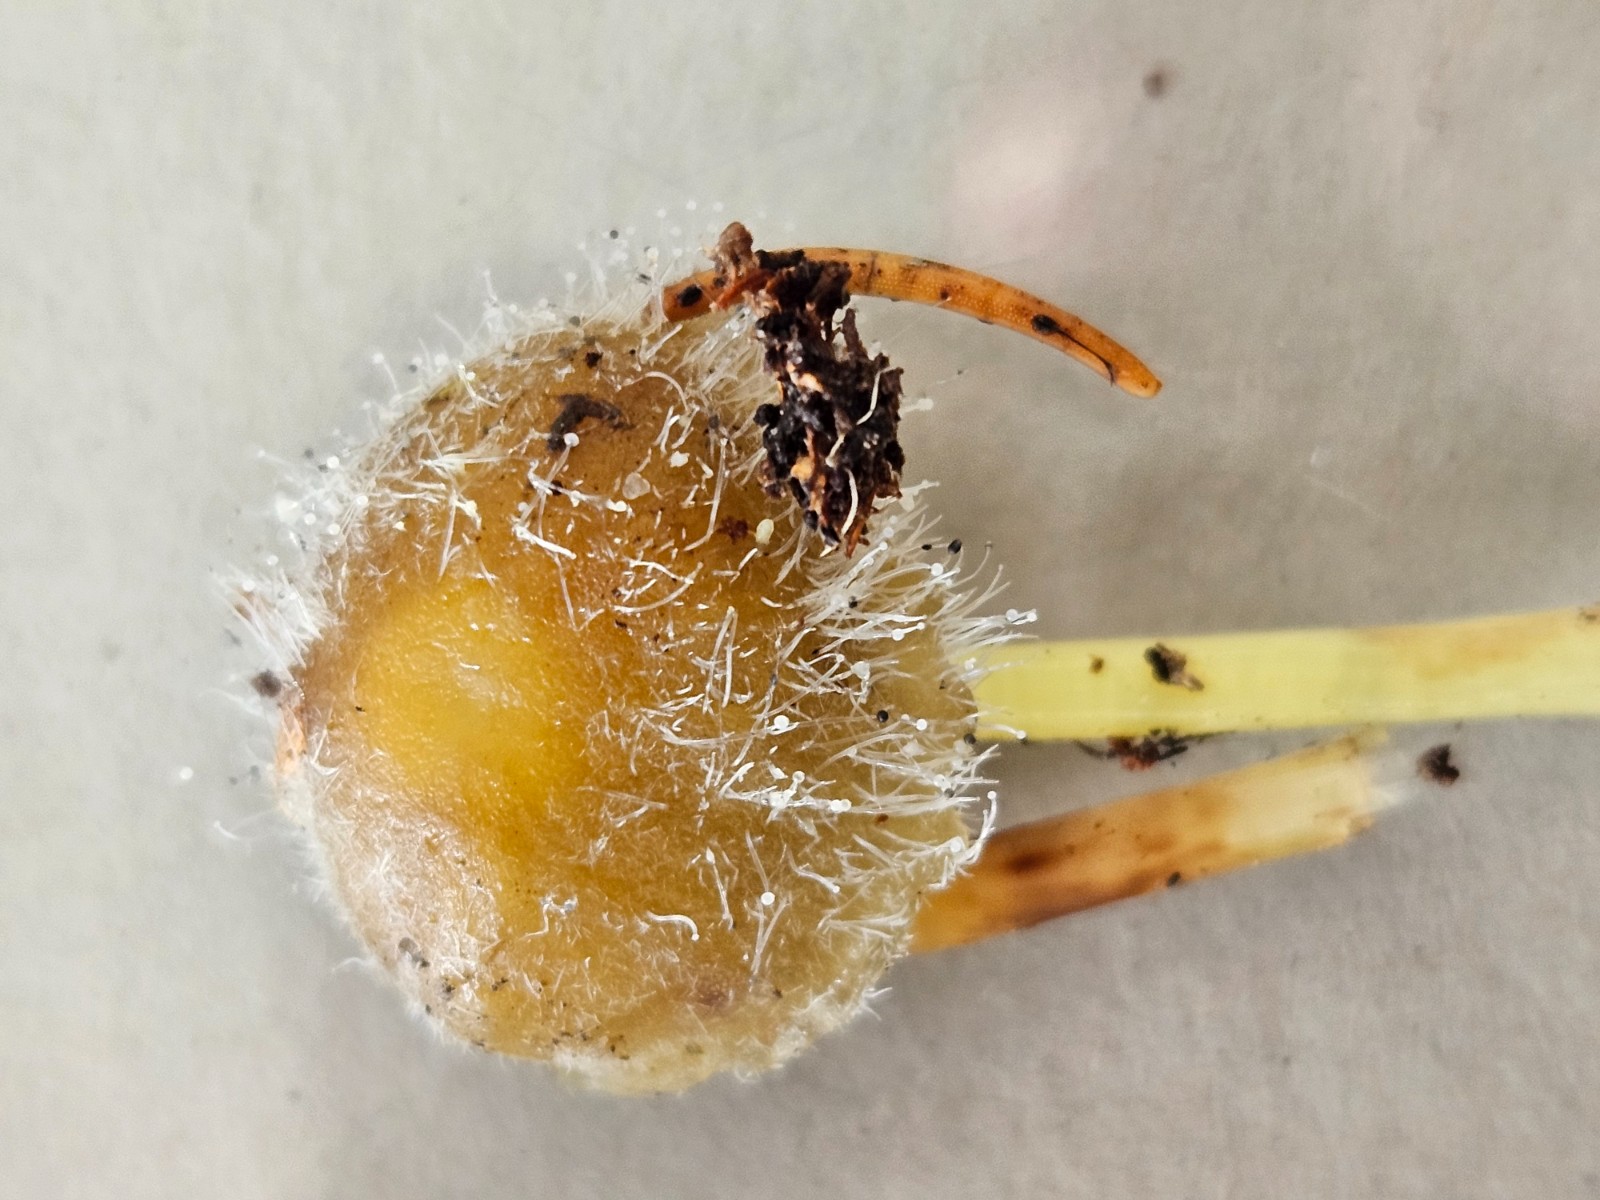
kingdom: Fungi
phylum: Basidiomycota
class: Agaricomycetes
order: Agaricales
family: Mycenaceae
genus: Mycena
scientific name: Mycena
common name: huesvamp
